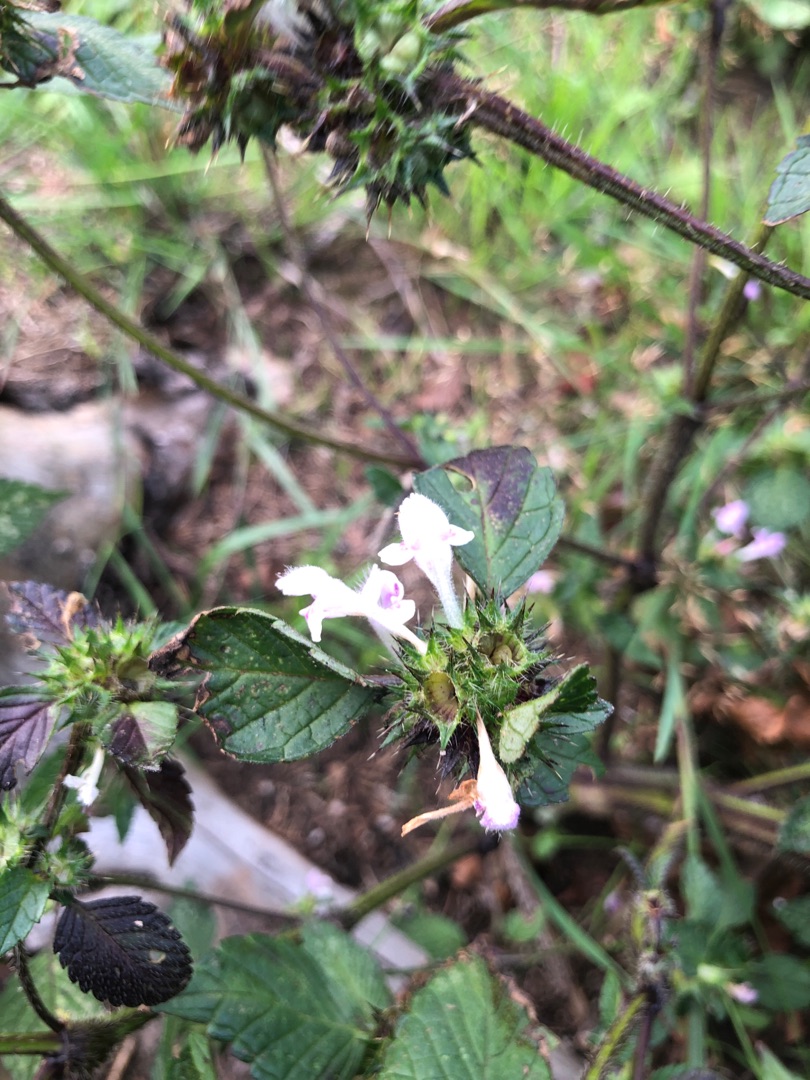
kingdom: Plantae
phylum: Tracheophyta
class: Magnoliopsida
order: Lamiales
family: Lamiaceae
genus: Galeopsis
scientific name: Galeopsis
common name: Hanekroslægten
